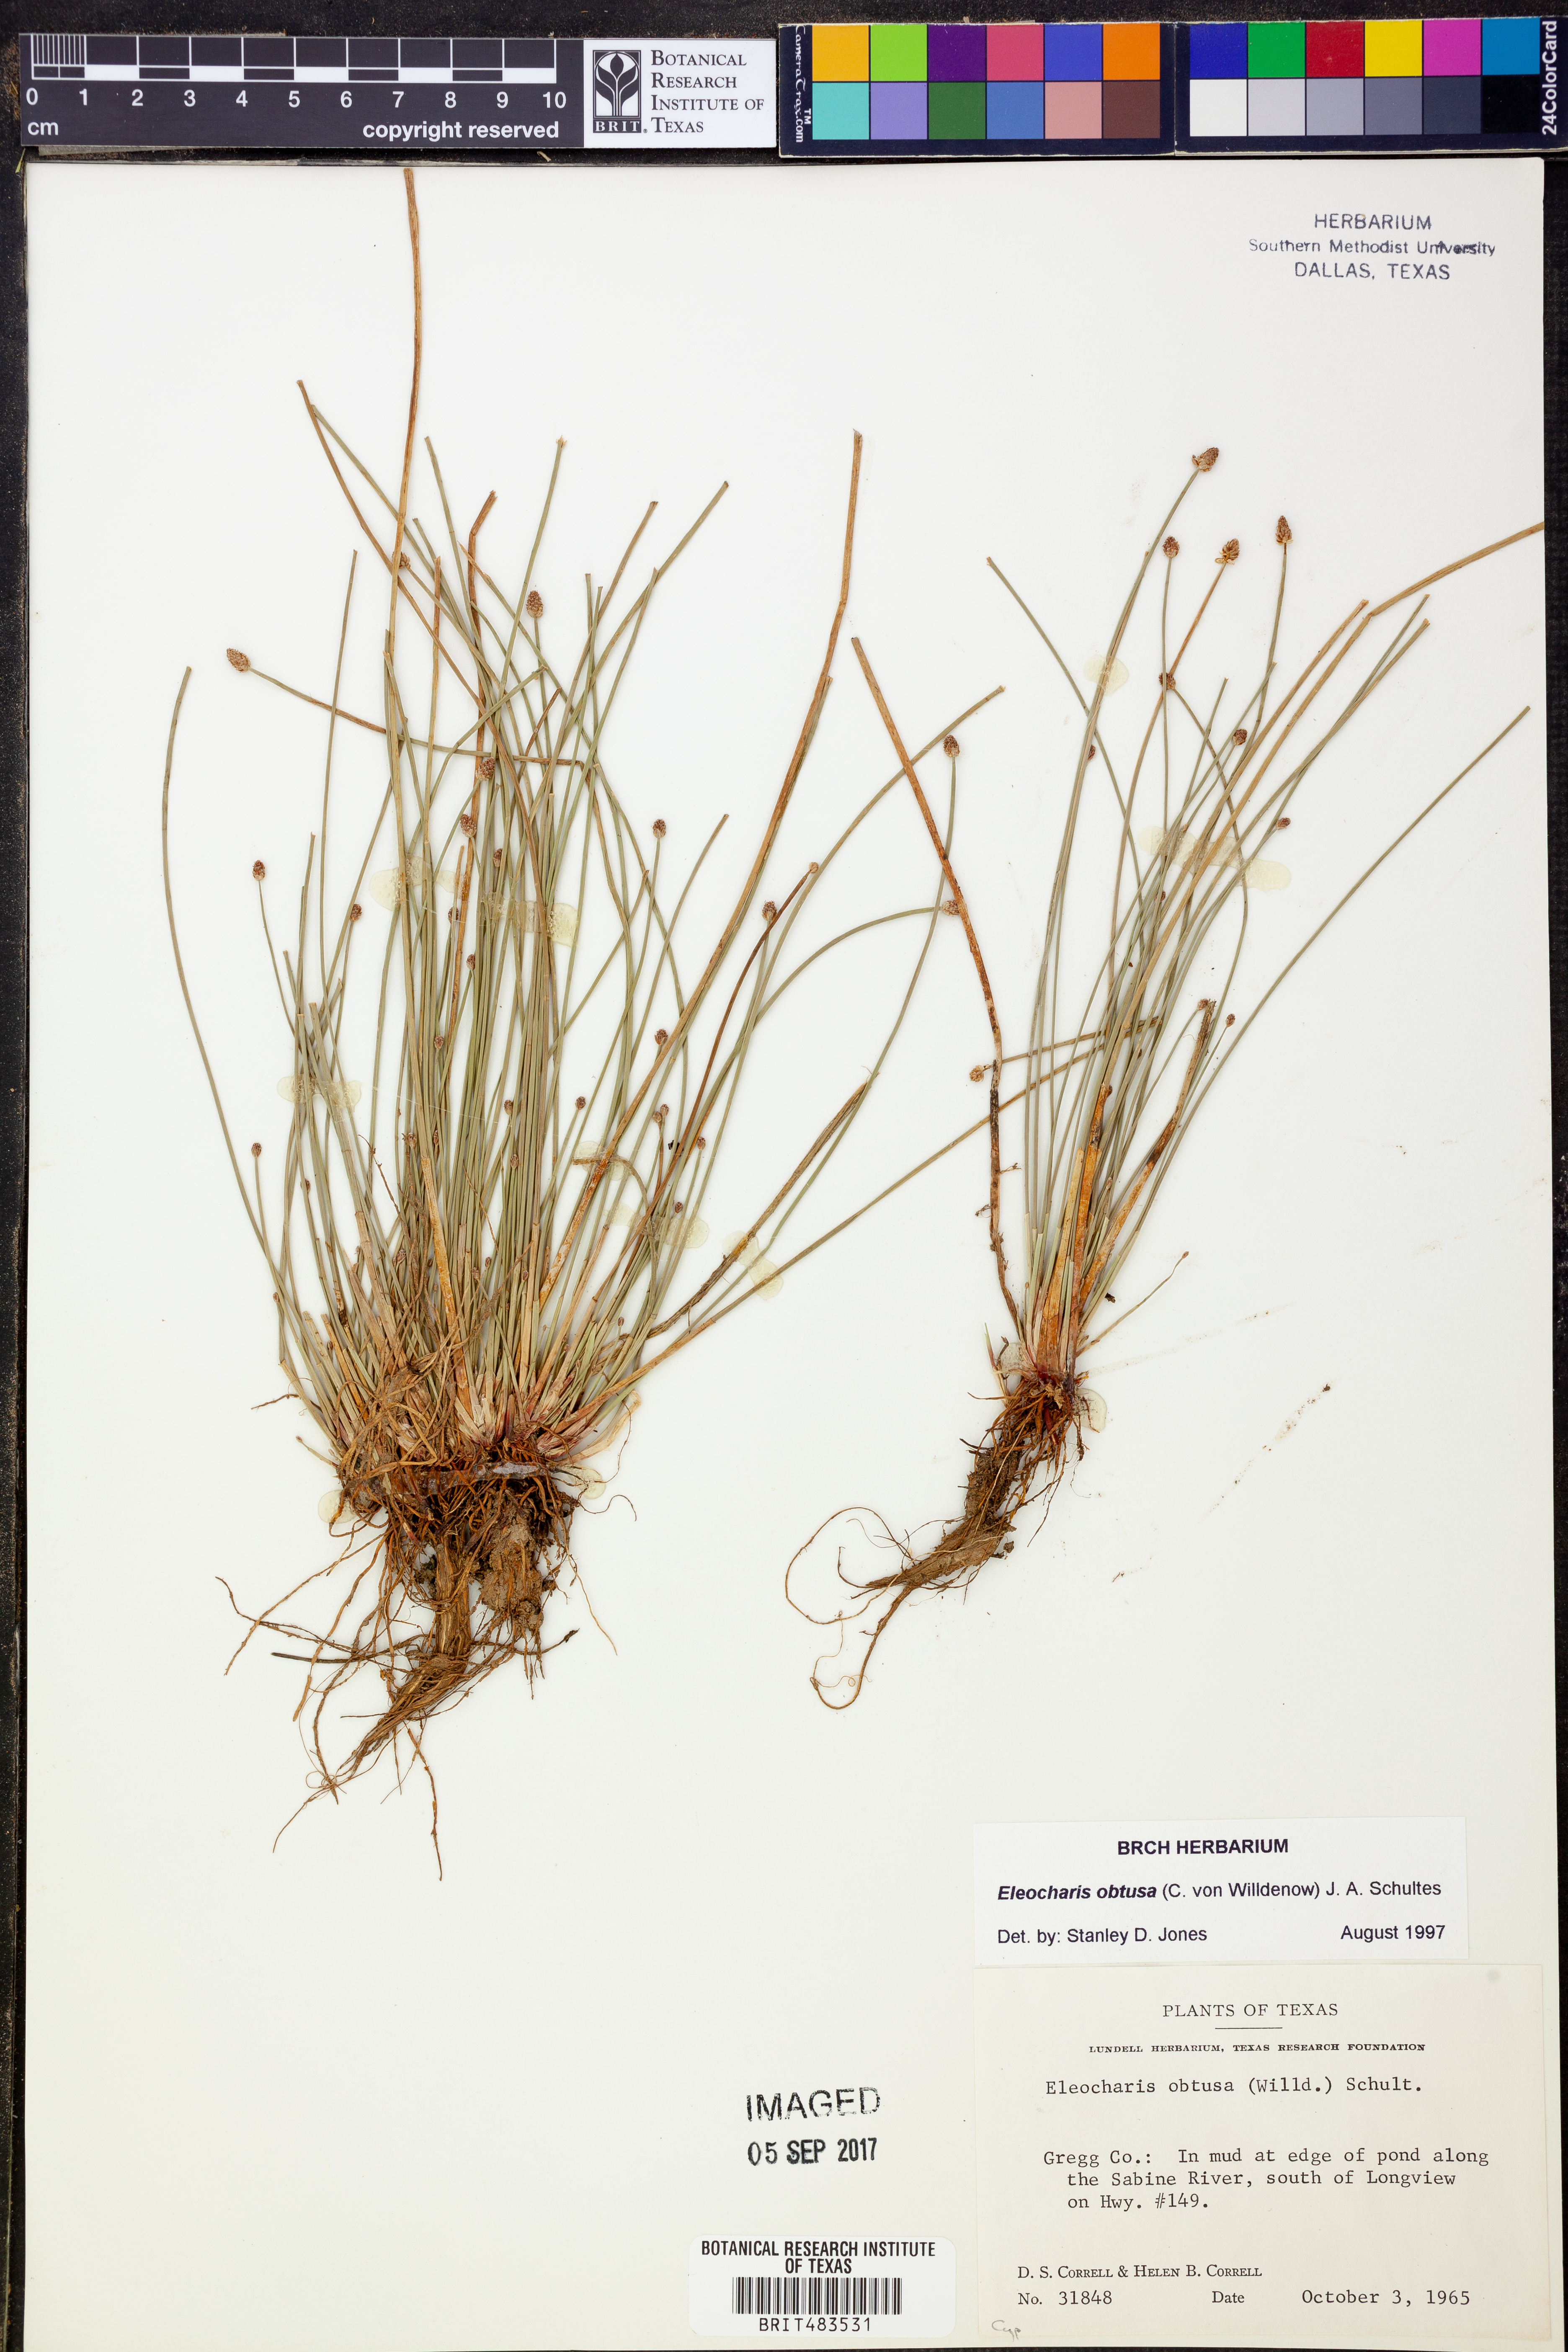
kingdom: Plantae
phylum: Tracheophyta
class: Liliopsida
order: Poales
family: Cyperaceae
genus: Eleocharis
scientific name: Eleocharis obtusa
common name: Blunt spikerush
